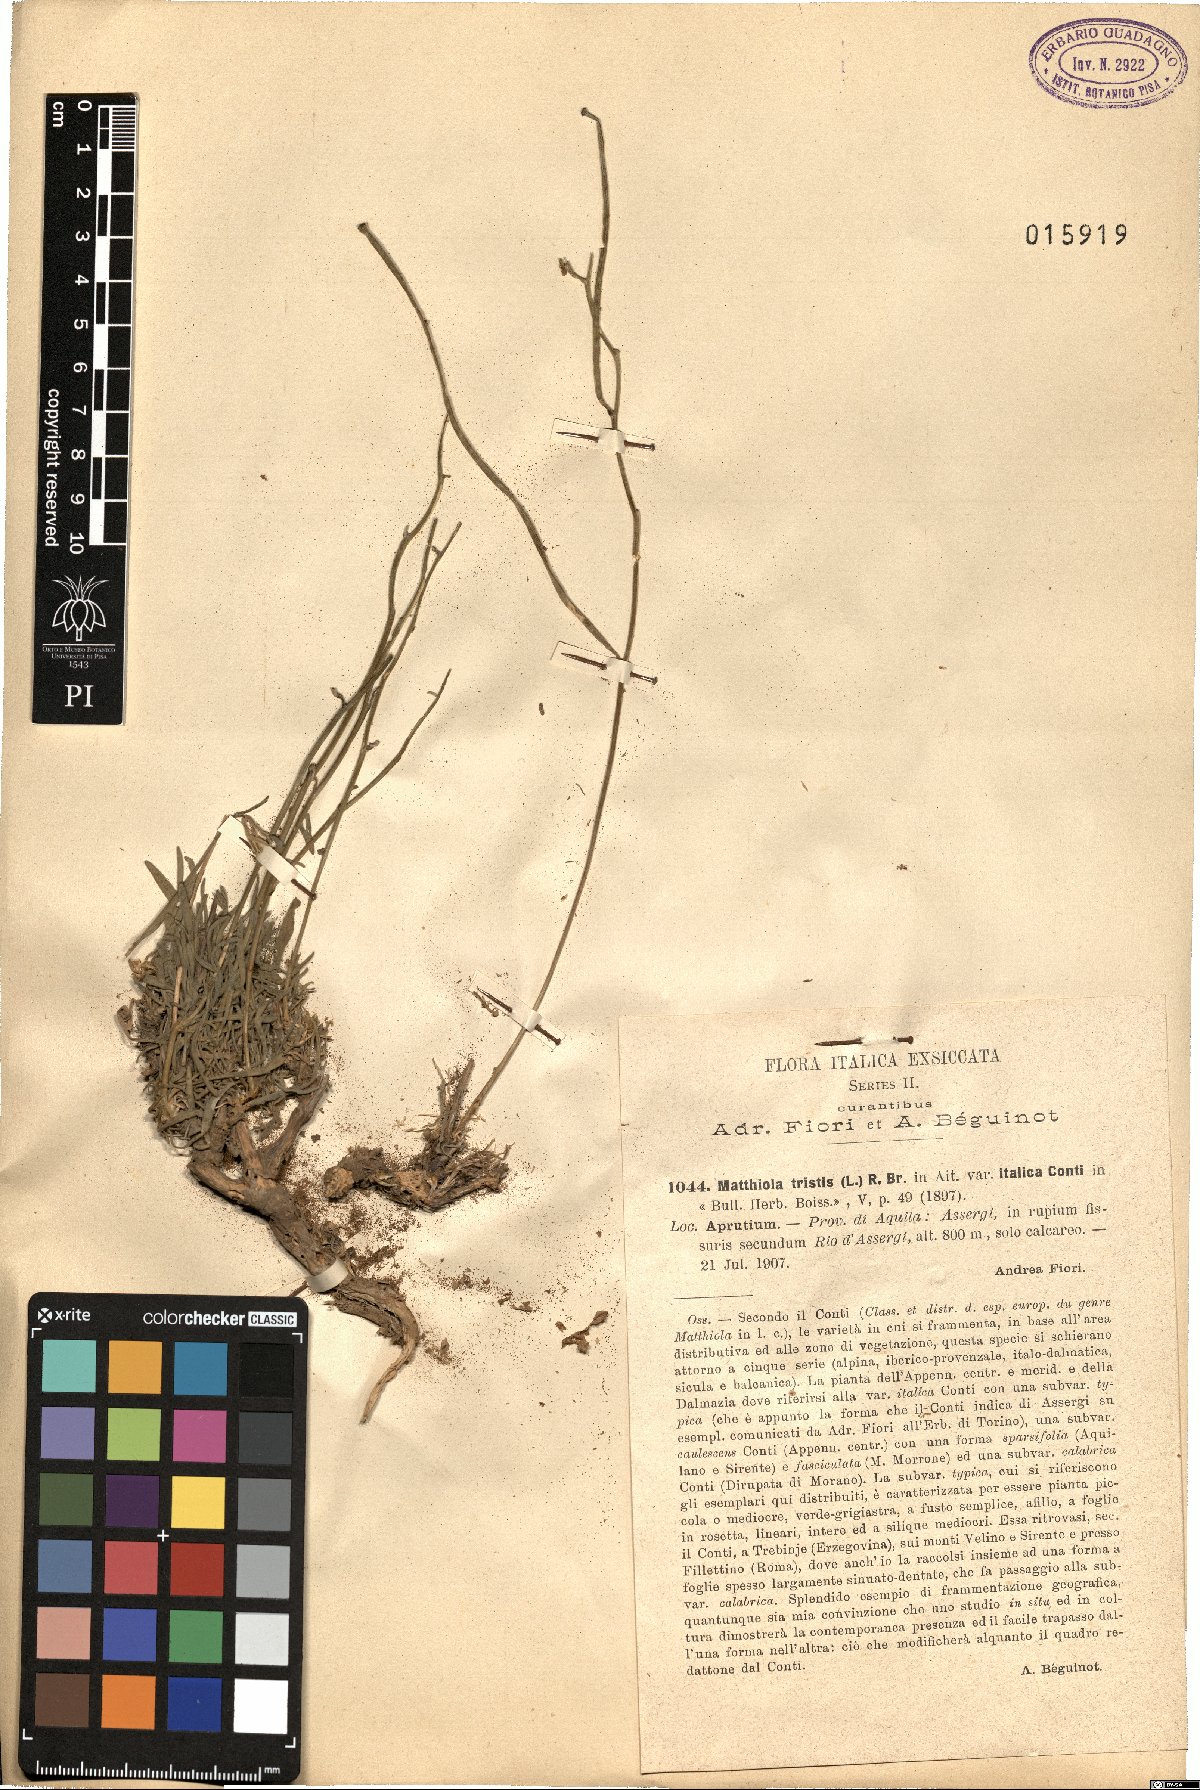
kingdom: Plantae
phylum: Tracheophyta
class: Magnoliopsida
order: Brassicales
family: Brassicaceae
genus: Matthiola
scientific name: Matthiola fruticulosa
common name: Sad stock
